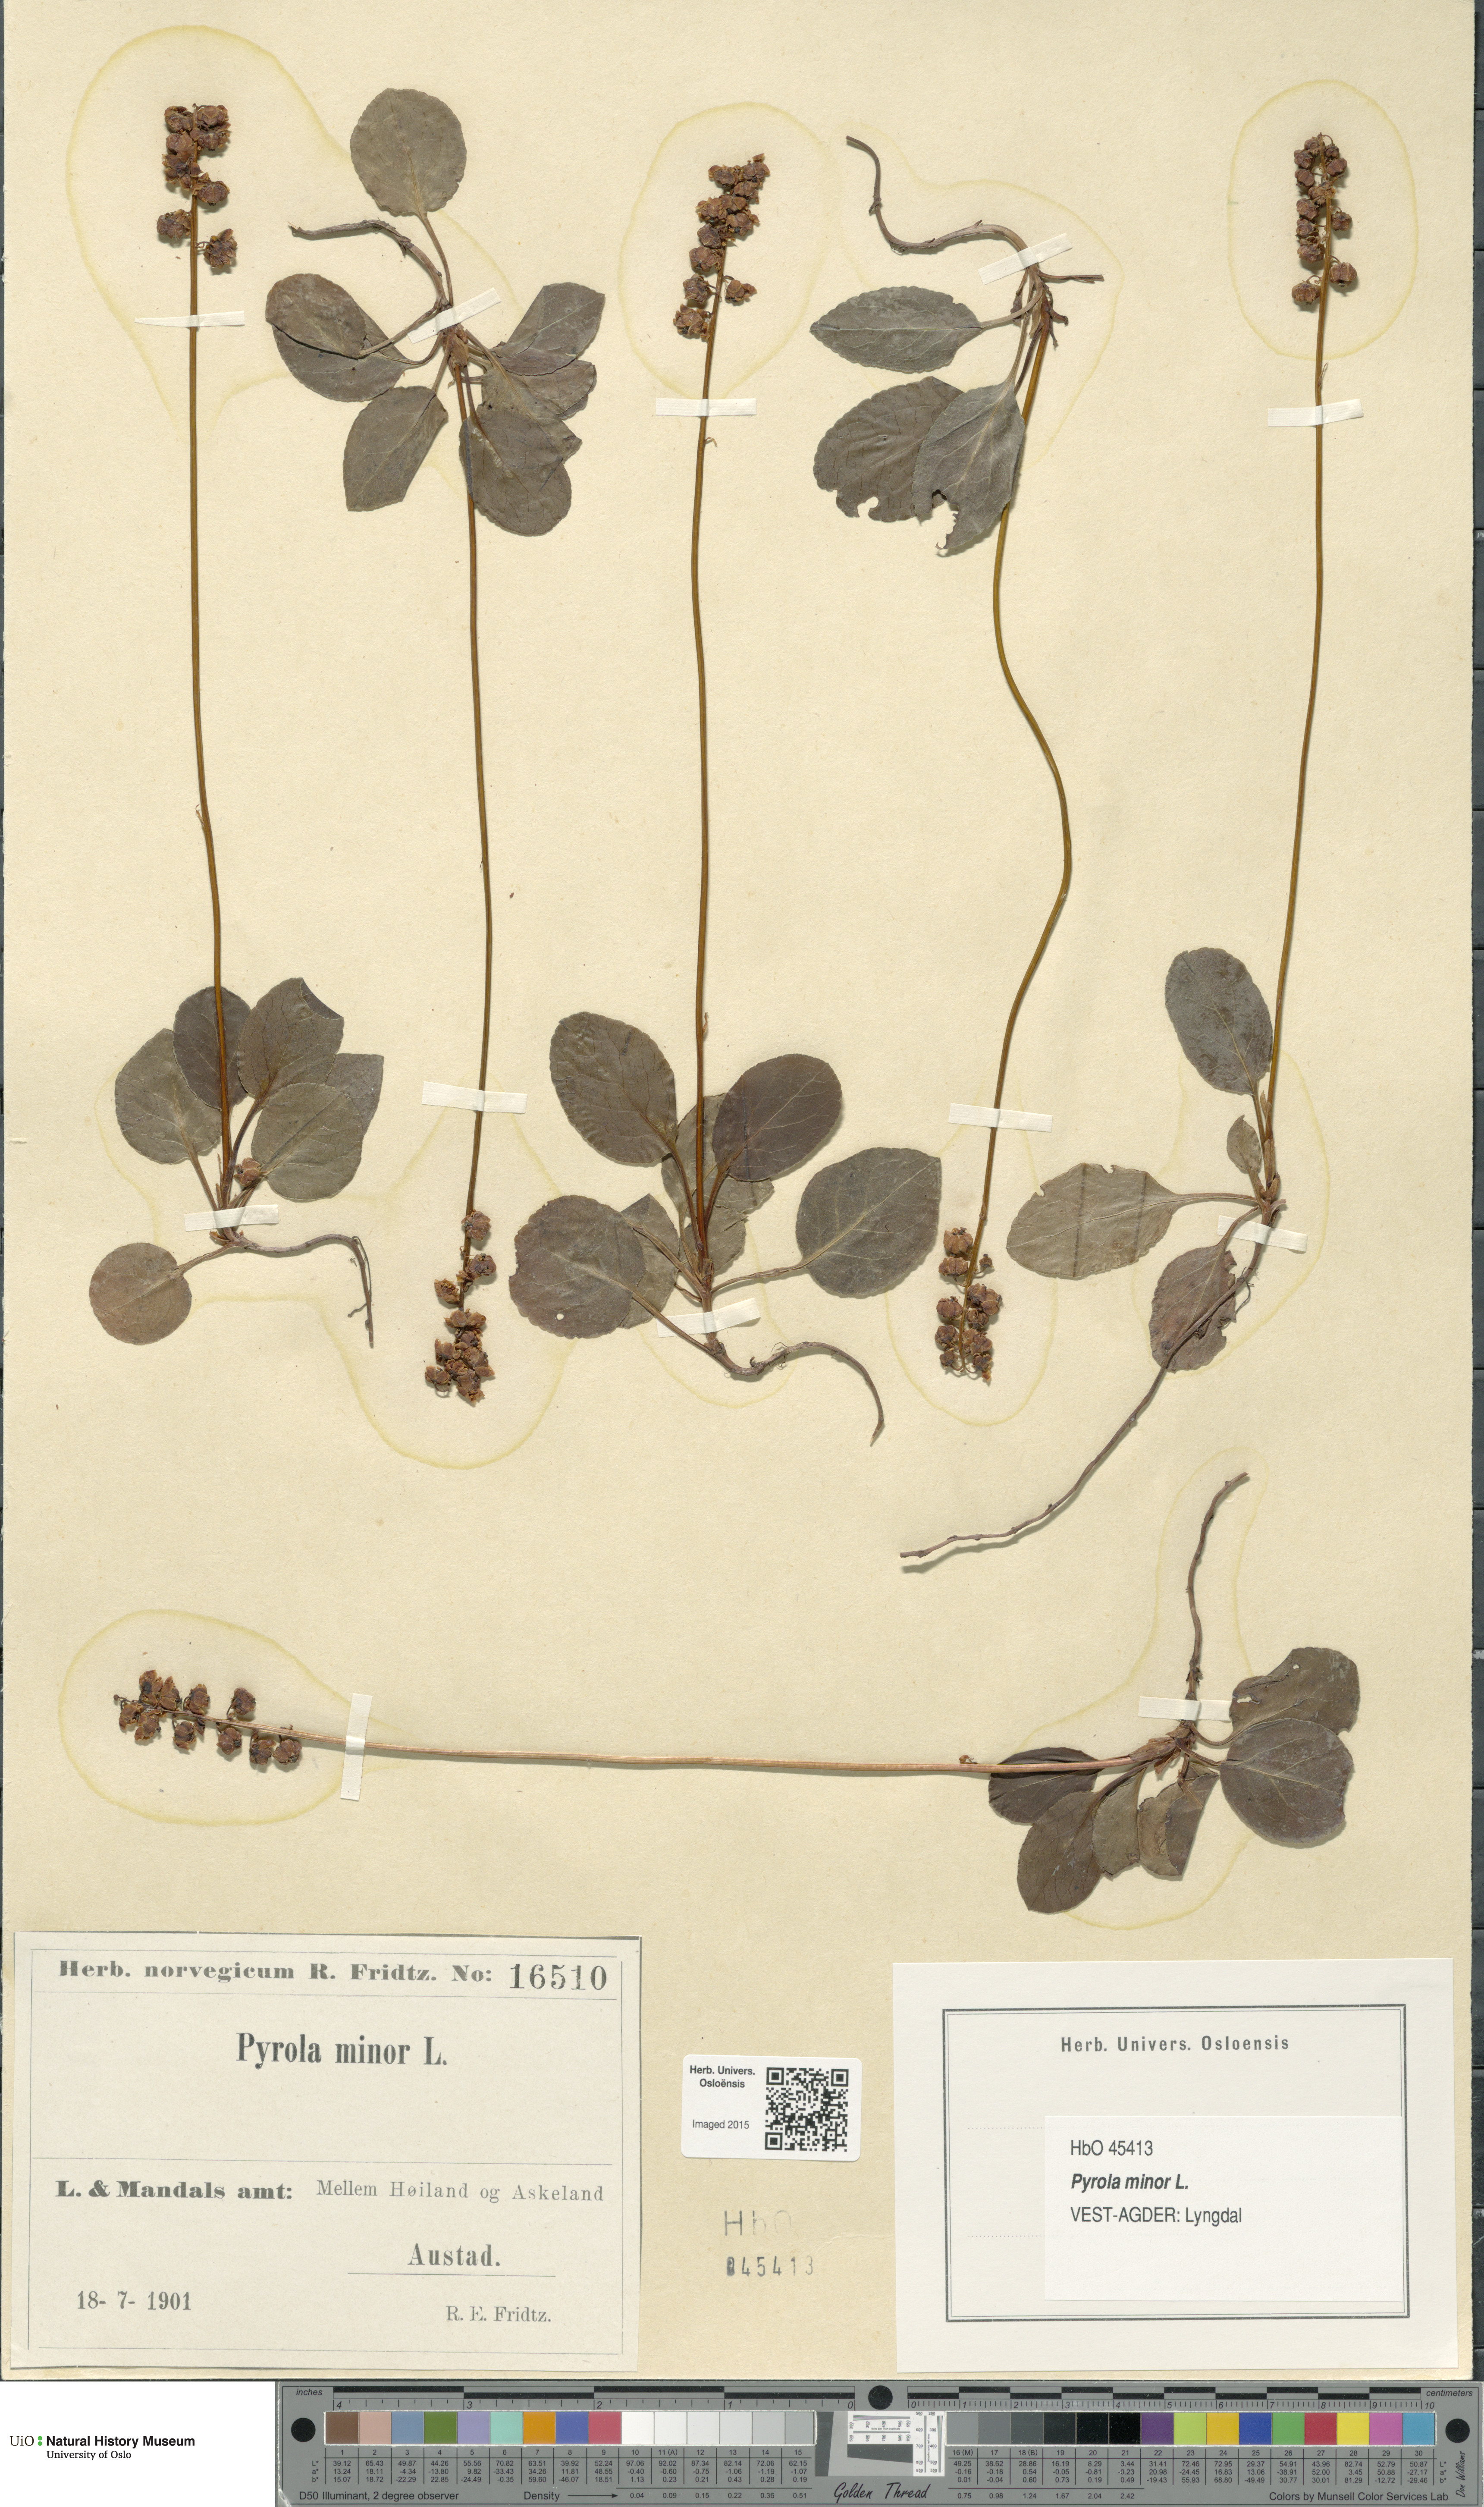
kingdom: Plantae
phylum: Tracheophyta
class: Magnoliopsida
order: Ericales
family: Ericaceae
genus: Pyrola
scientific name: Pyrola minor
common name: Common wintergreen
